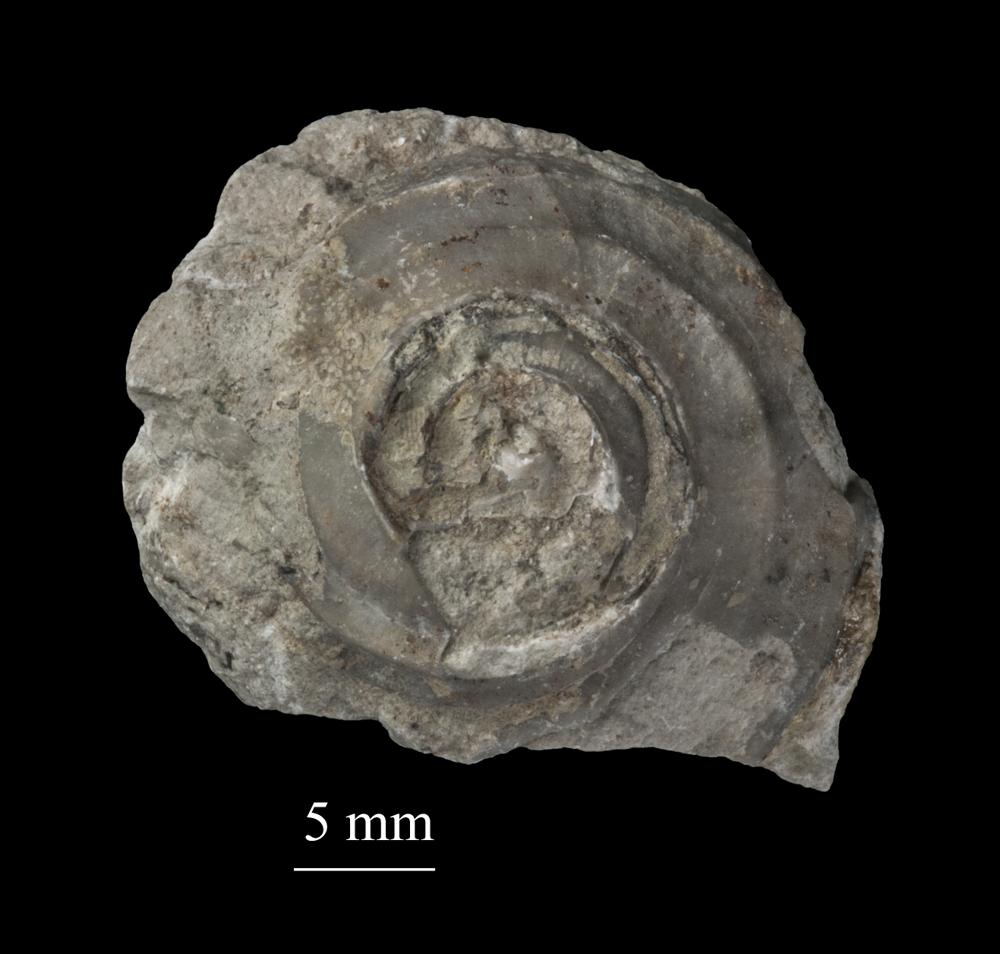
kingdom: Animalia
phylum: Mollusca
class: Gastropoda
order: Trochida
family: Trochidae
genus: Trochus
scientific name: Trochus
